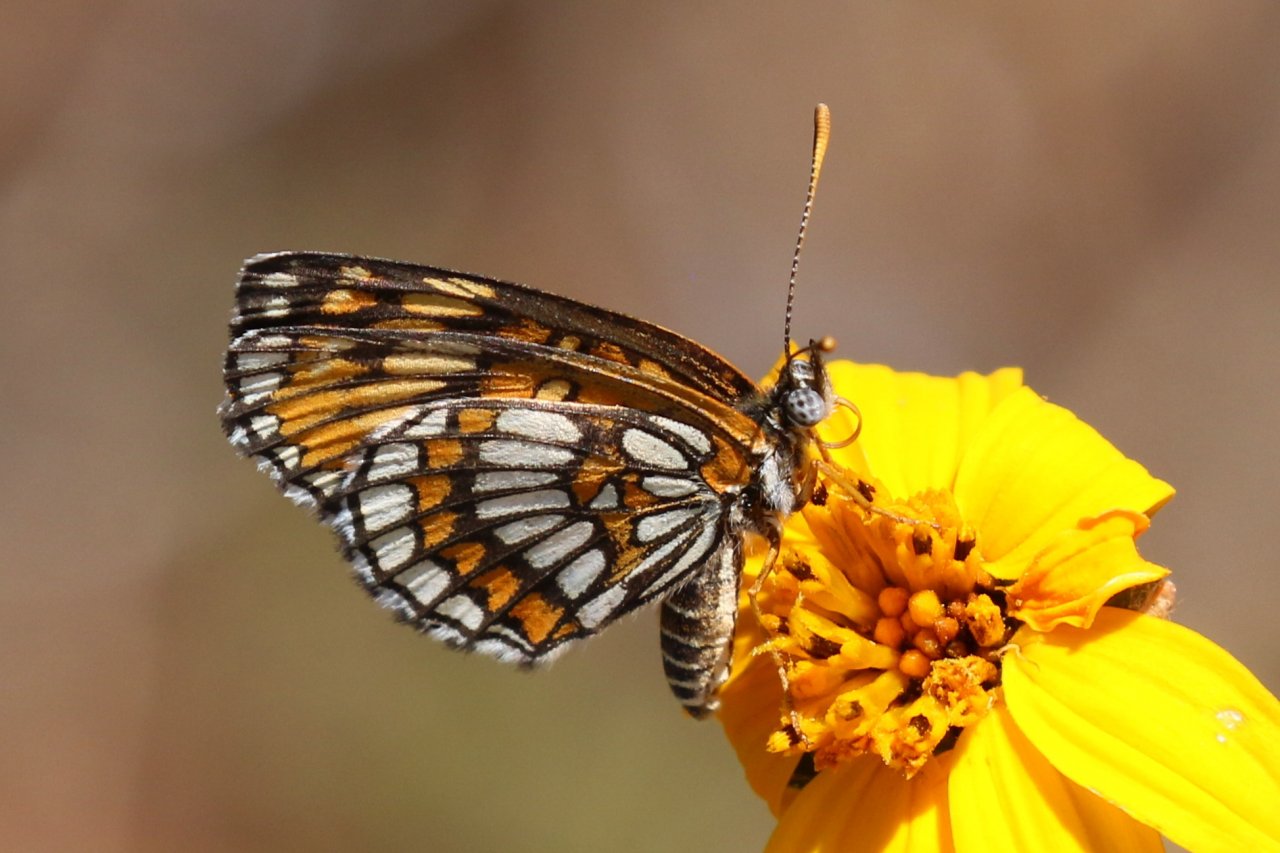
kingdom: Animalia
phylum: Arthropoda
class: Insecta
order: Lepidoptera
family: Nymphalidae
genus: Thessalia
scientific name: Thessalia theona
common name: Theona Checkerspot
